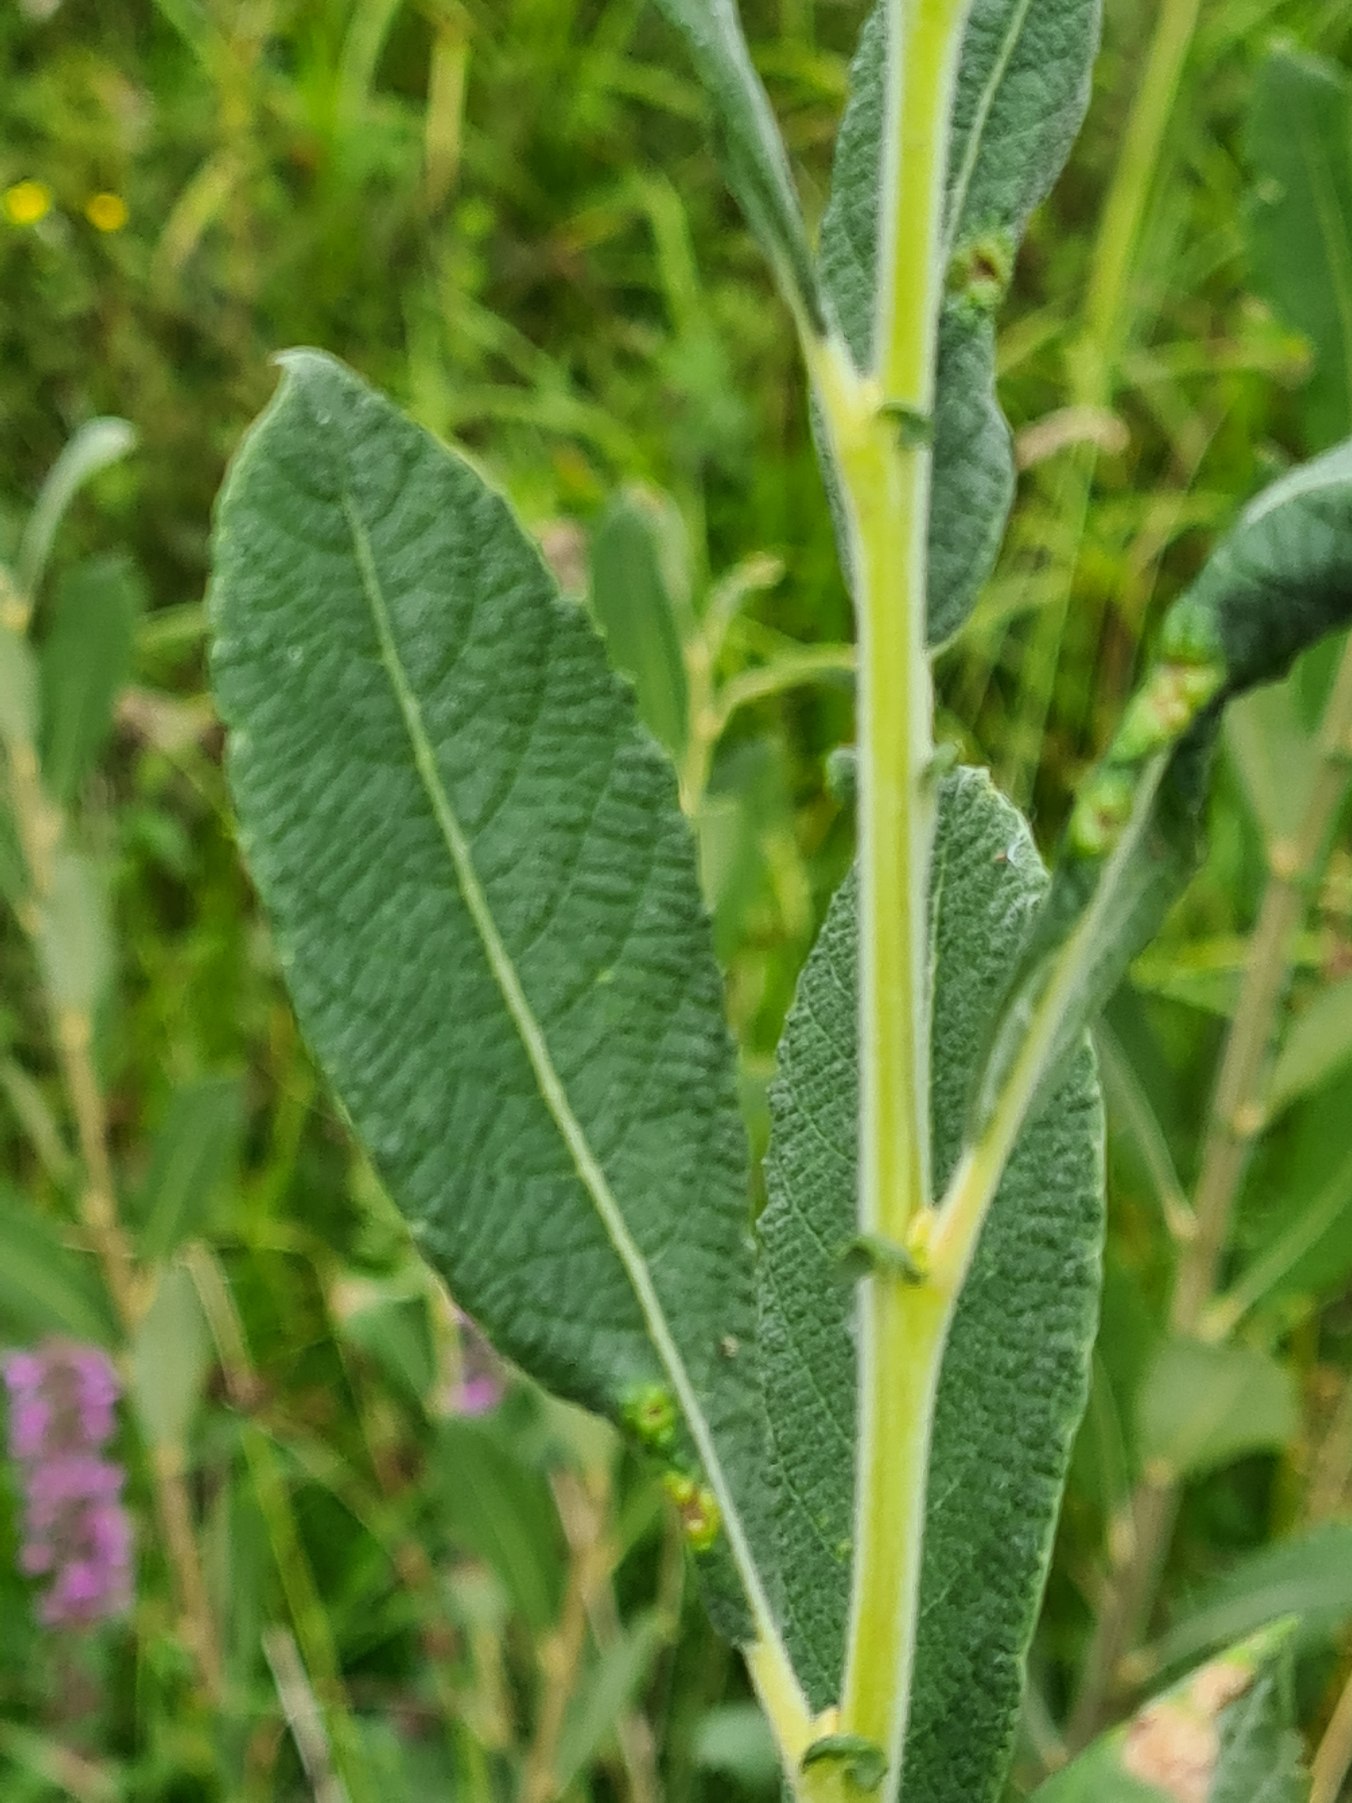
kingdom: Plantae
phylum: Tracheophyta
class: Magnoliopsida
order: Malpighiales
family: Salicaceae
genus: Salix
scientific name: Salix cinerea
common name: Grå-pil
